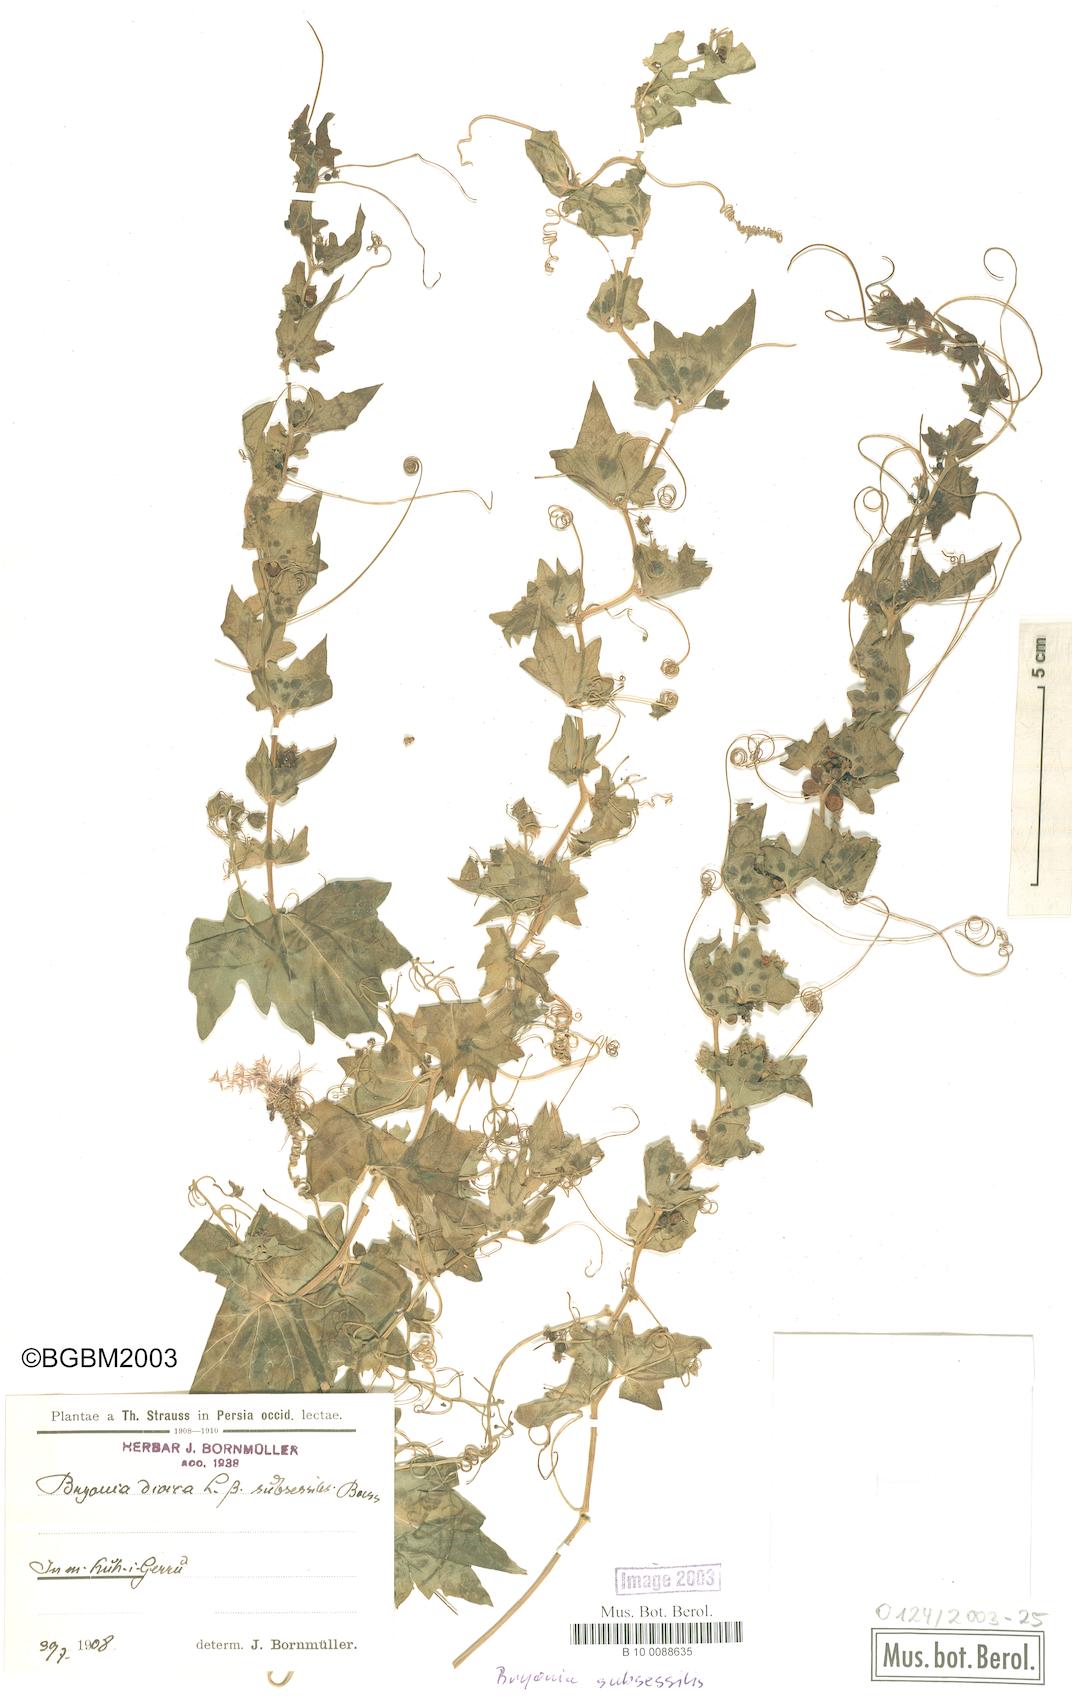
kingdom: Plantae
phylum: Tracheophyta
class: Magnoliopsida
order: Cucurbitales
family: Cucurbitaceae
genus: Bryonia
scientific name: Bryonia multiflora
